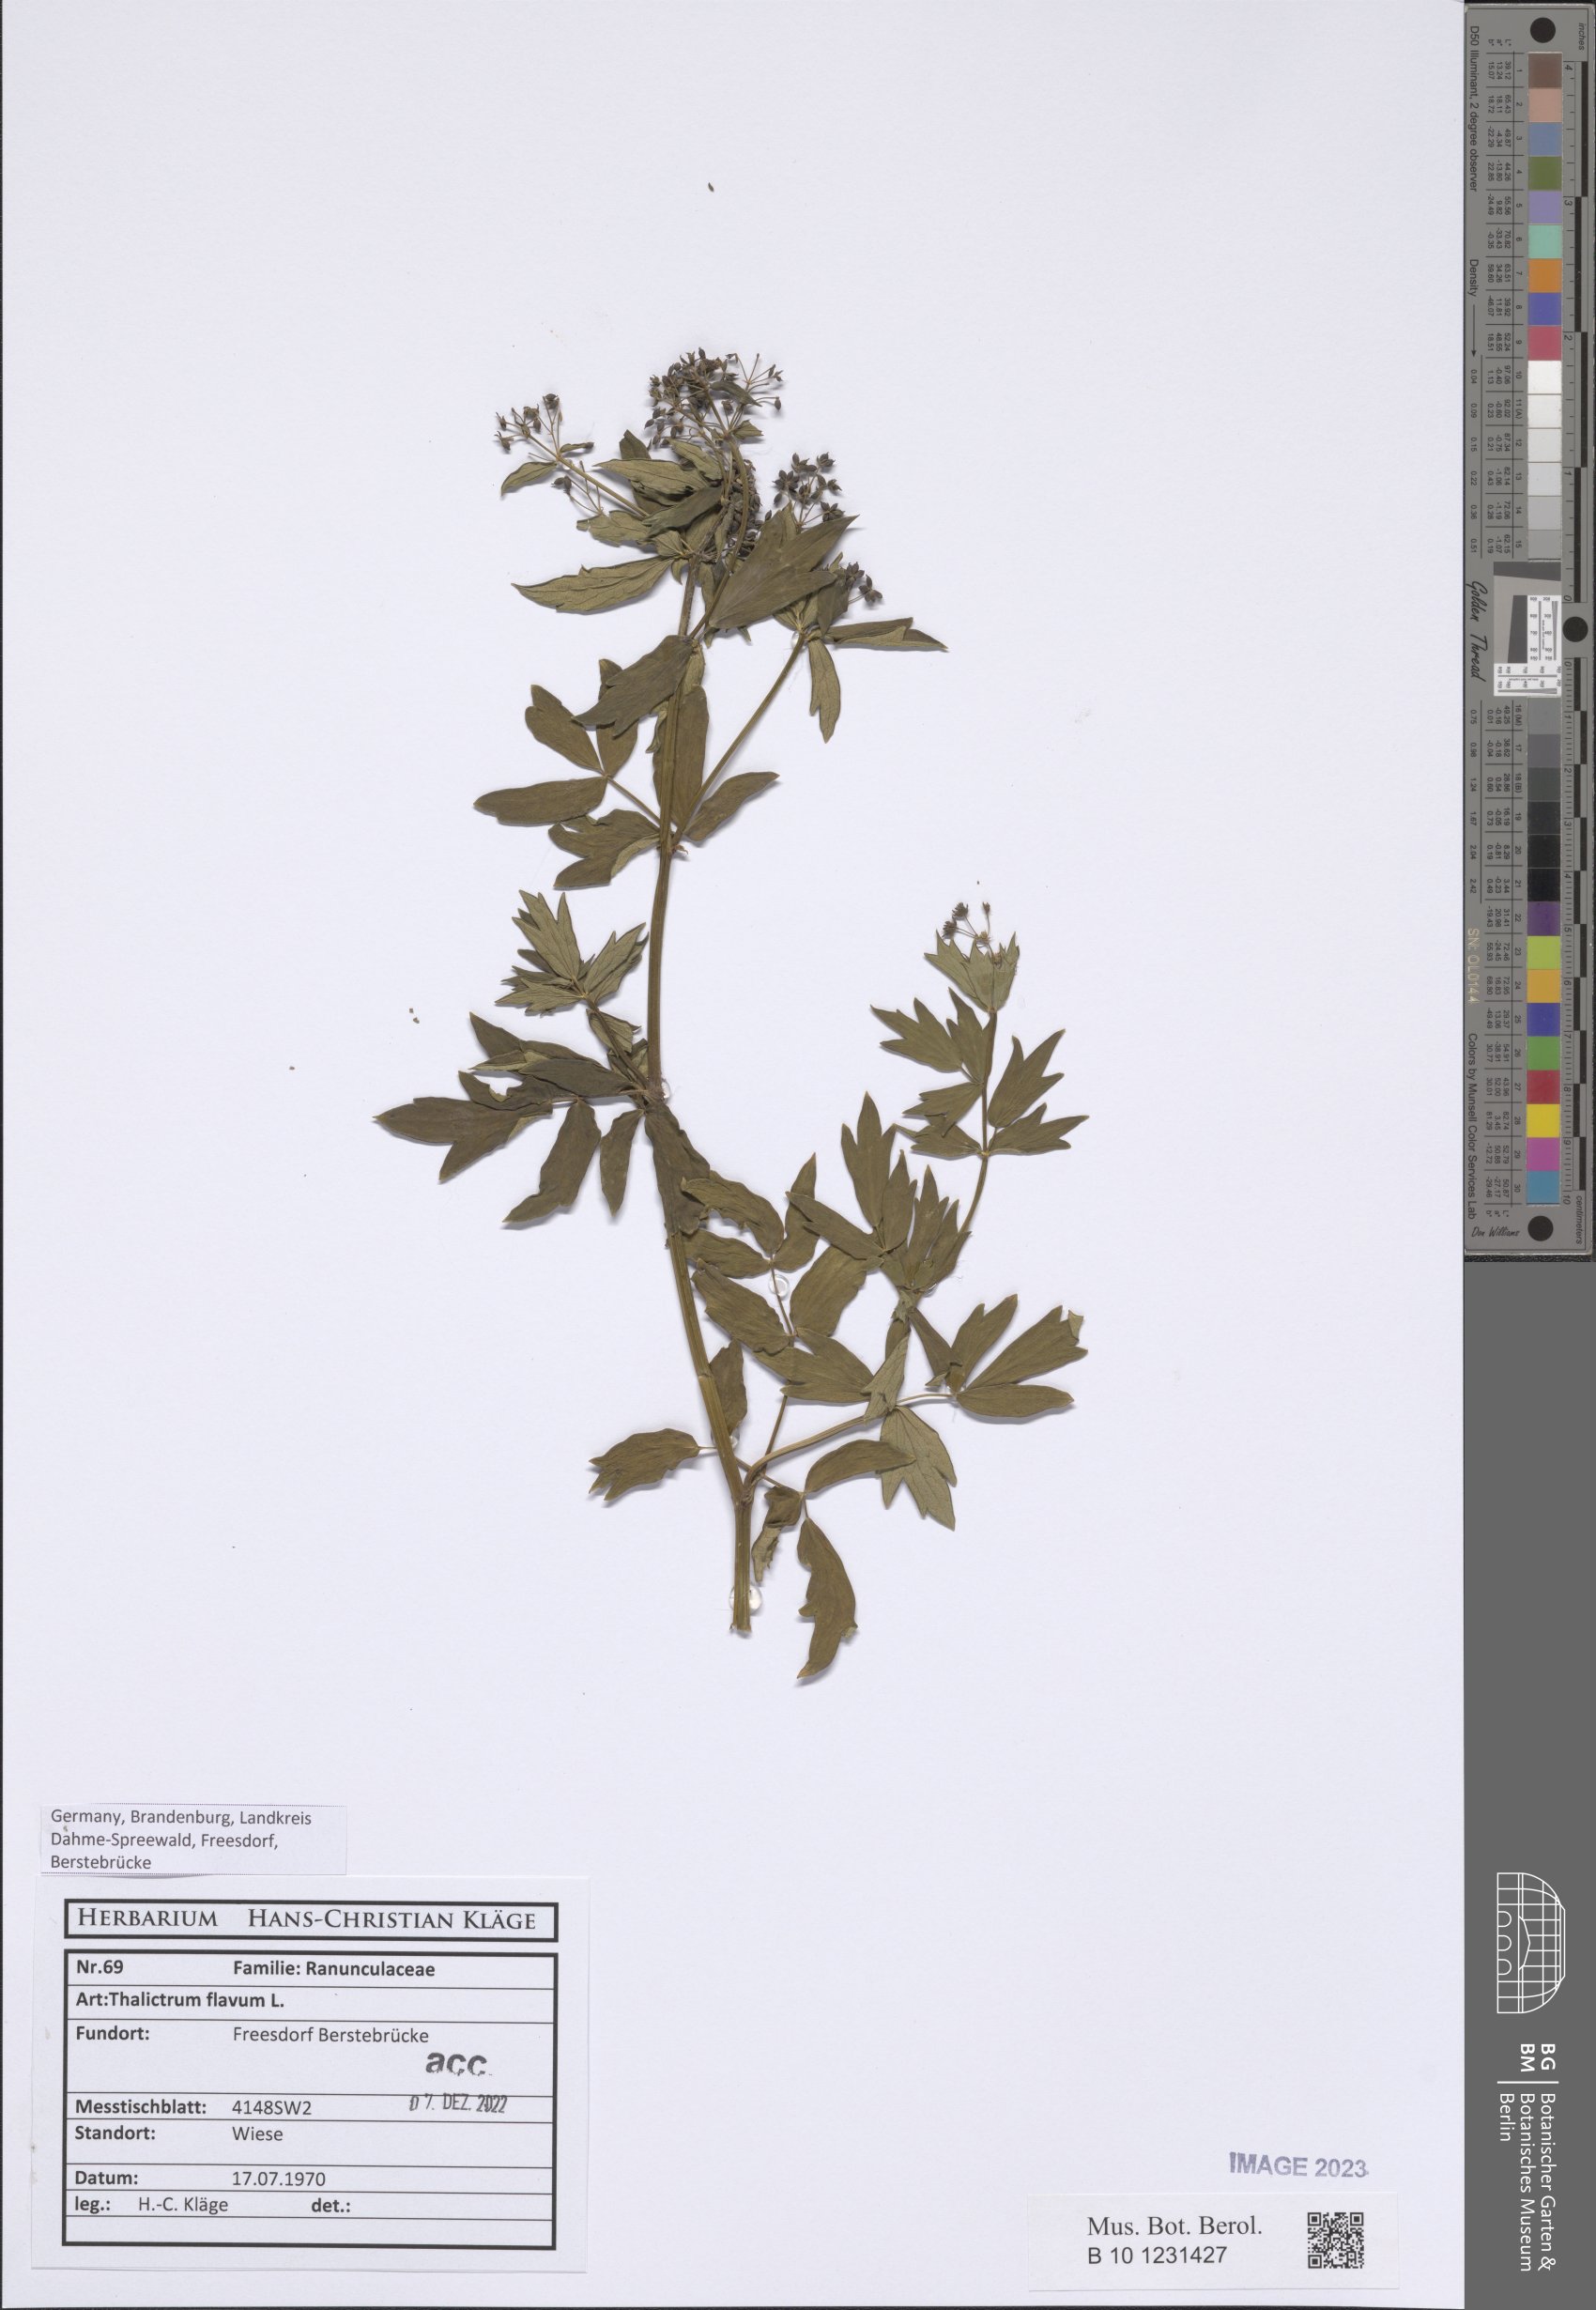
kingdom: Plantae
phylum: Tracheophyta
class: Magnoliopsida
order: Ranunculales
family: Ranunculaceae
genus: Thalictrum
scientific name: Thalictrum flavum
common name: Common meadow-rue
